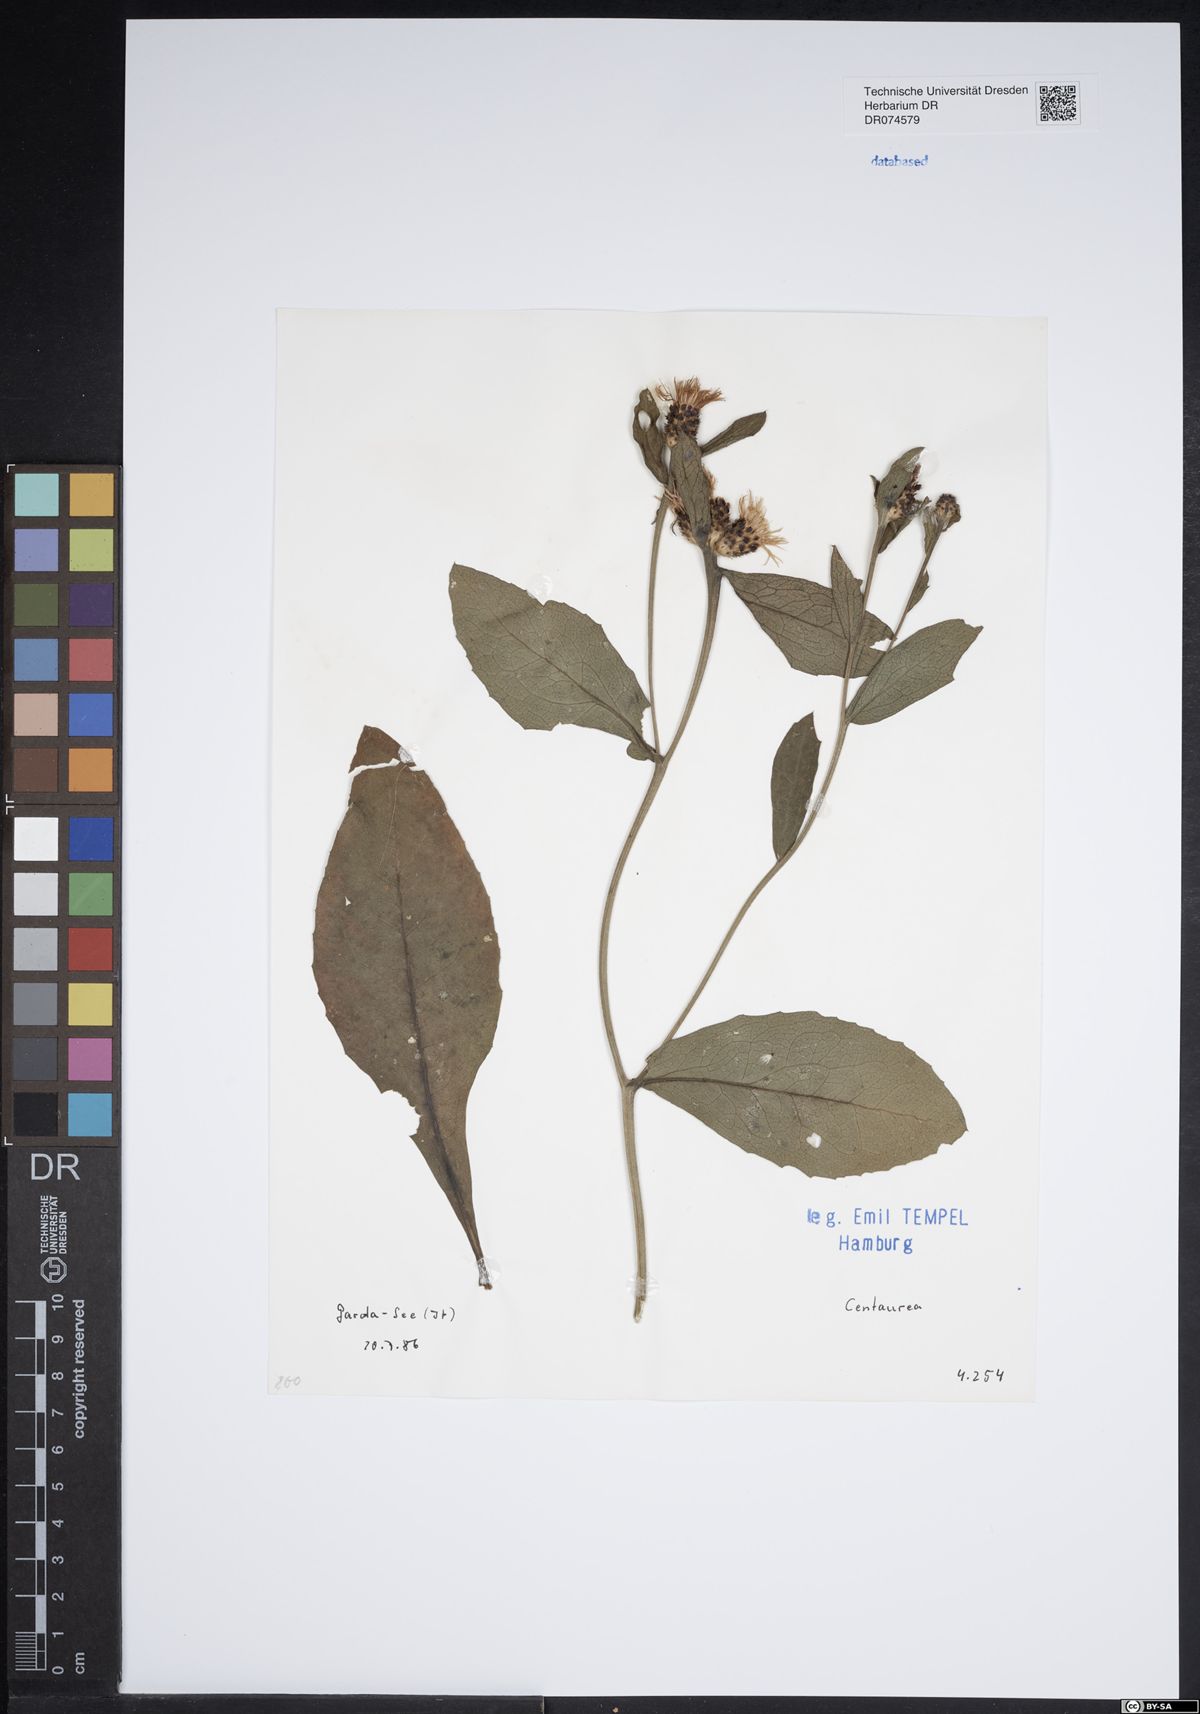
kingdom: Plantae
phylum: Tracheophyta
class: Magnoliopsida
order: Asterales
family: Asteraceae
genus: Centaurea
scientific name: Centaurea
